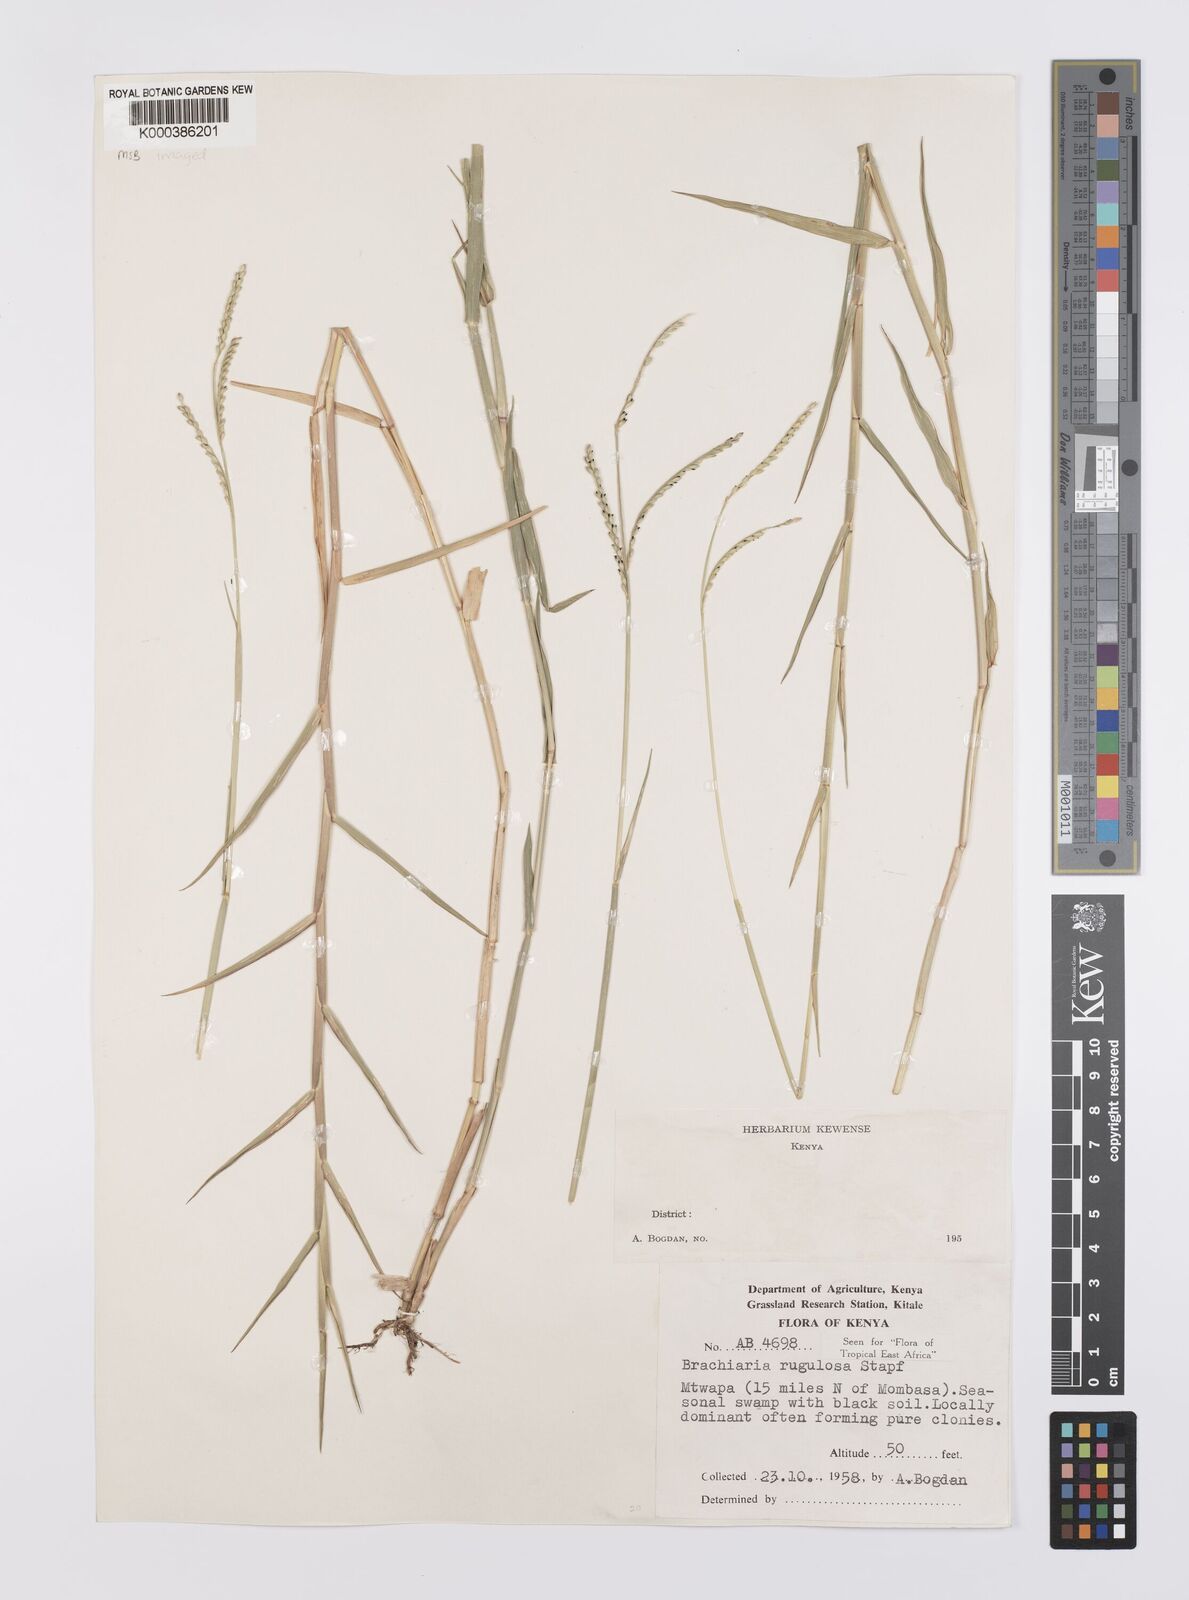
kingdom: Plantae
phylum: Tracheophyta
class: Liliopsida
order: Poales
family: Poaceae
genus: Urochloa
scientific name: Urochloa rugulosa
